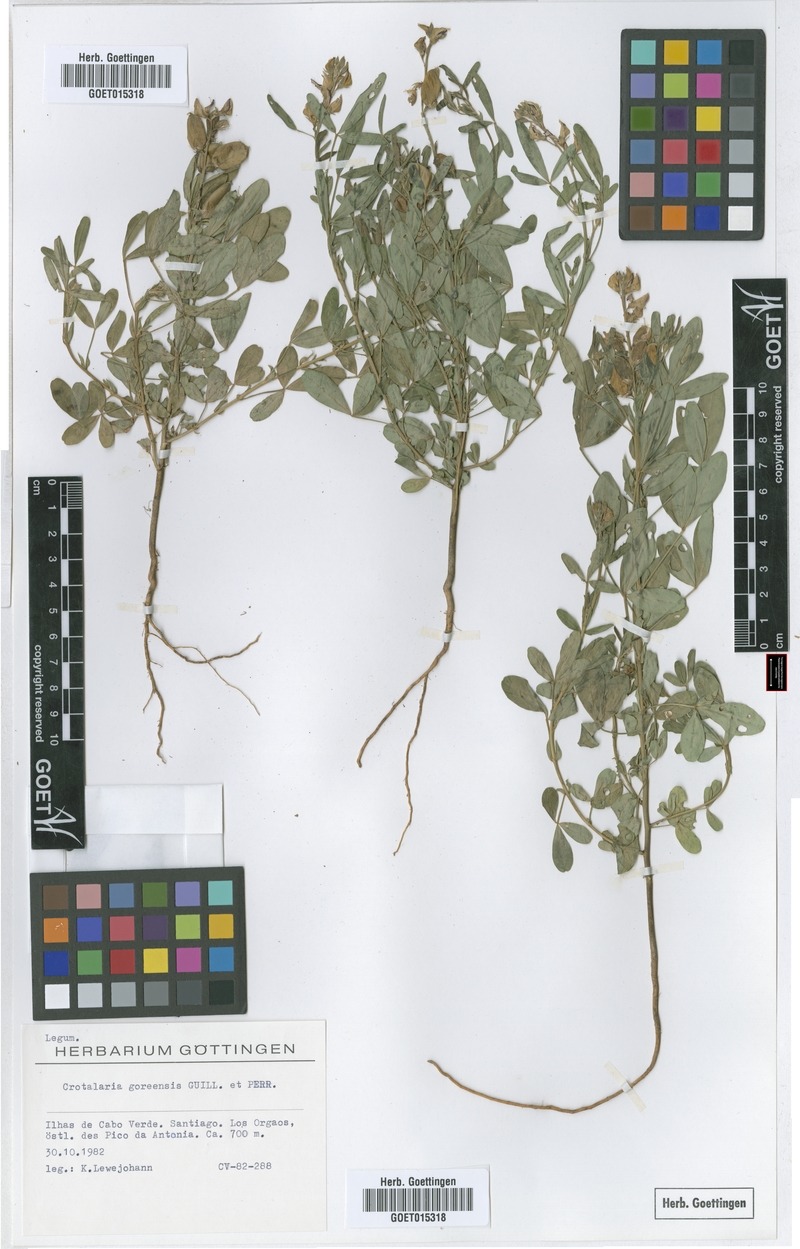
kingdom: Plantae
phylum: Tracheophyta
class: Magnoliopsida
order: Fabales
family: Fabaceae
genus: Crotalaria
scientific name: Crotalaria goreensis
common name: Gambia-pea
